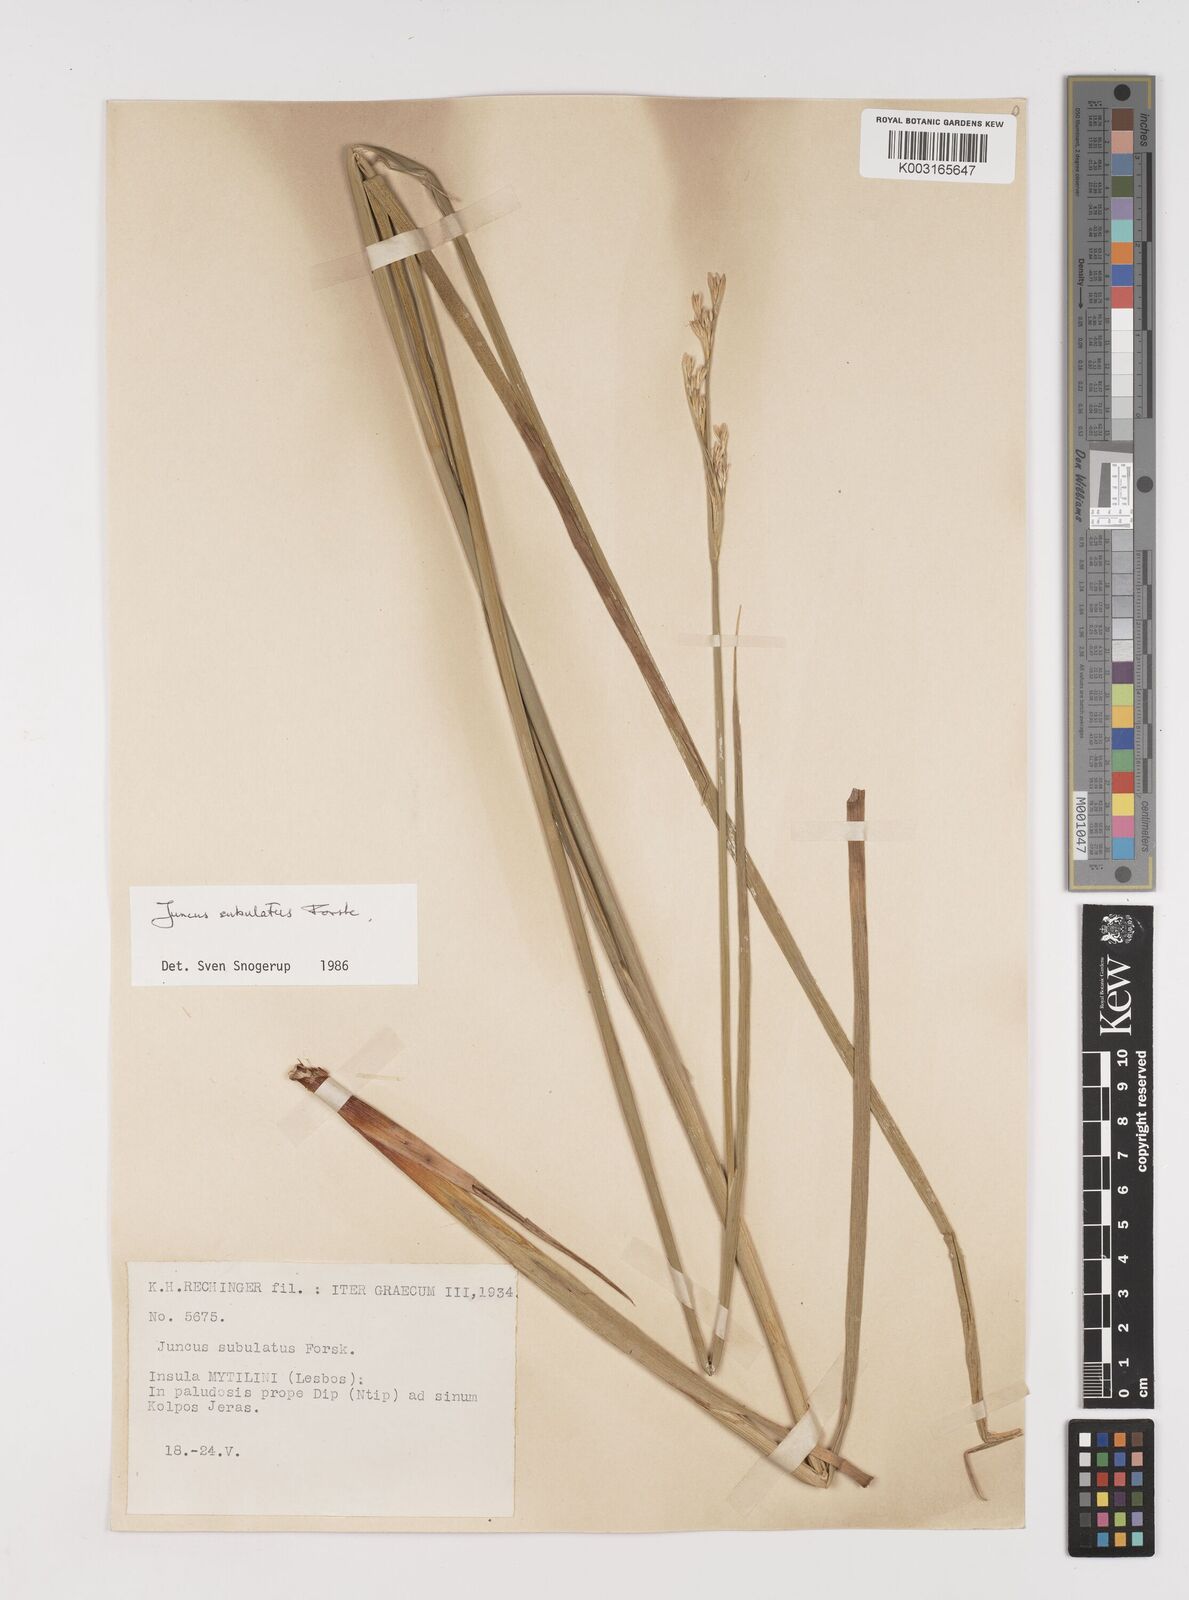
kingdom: Plantae
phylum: Tracheophyta
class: Liliopsida
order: Poales
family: Juncaceae
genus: Juncus
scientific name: Juncus subulatus
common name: Somerset rush
